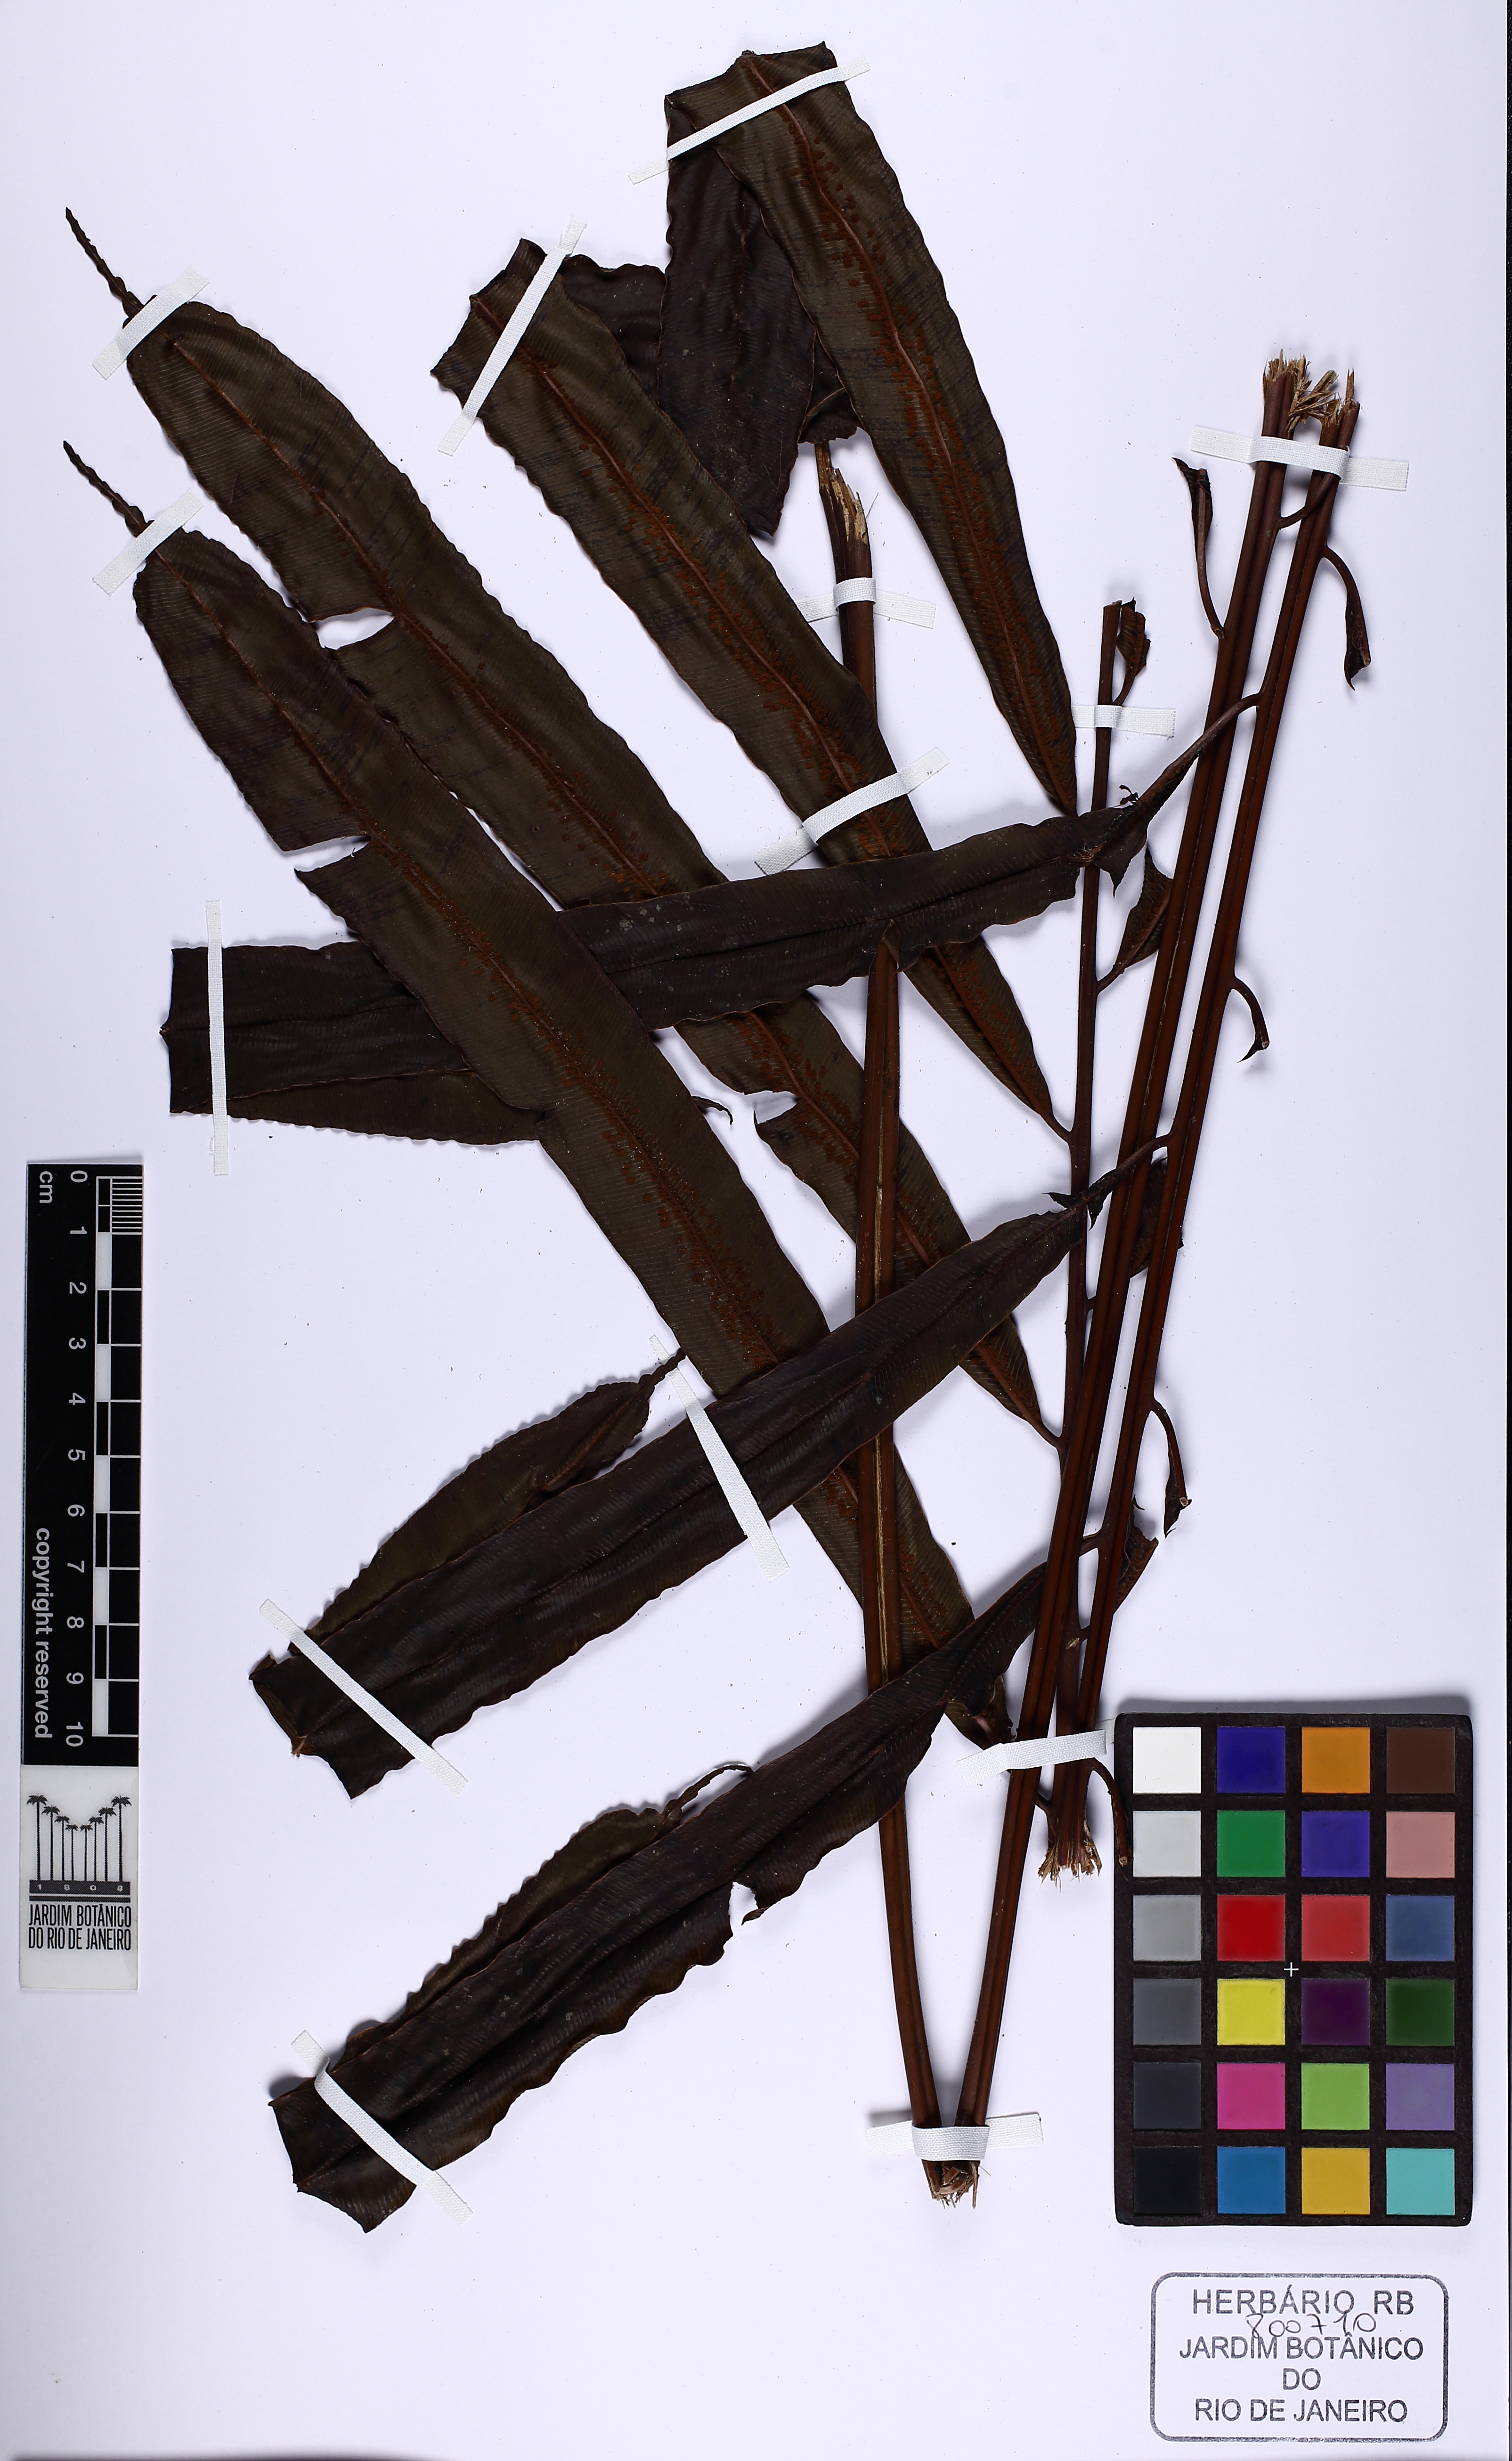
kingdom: Plantae
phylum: Tracheophyta
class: Polypodiopsida
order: Cyatheales
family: Metaxyaceae
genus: Metaxya
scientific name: Metaxya scalaris
